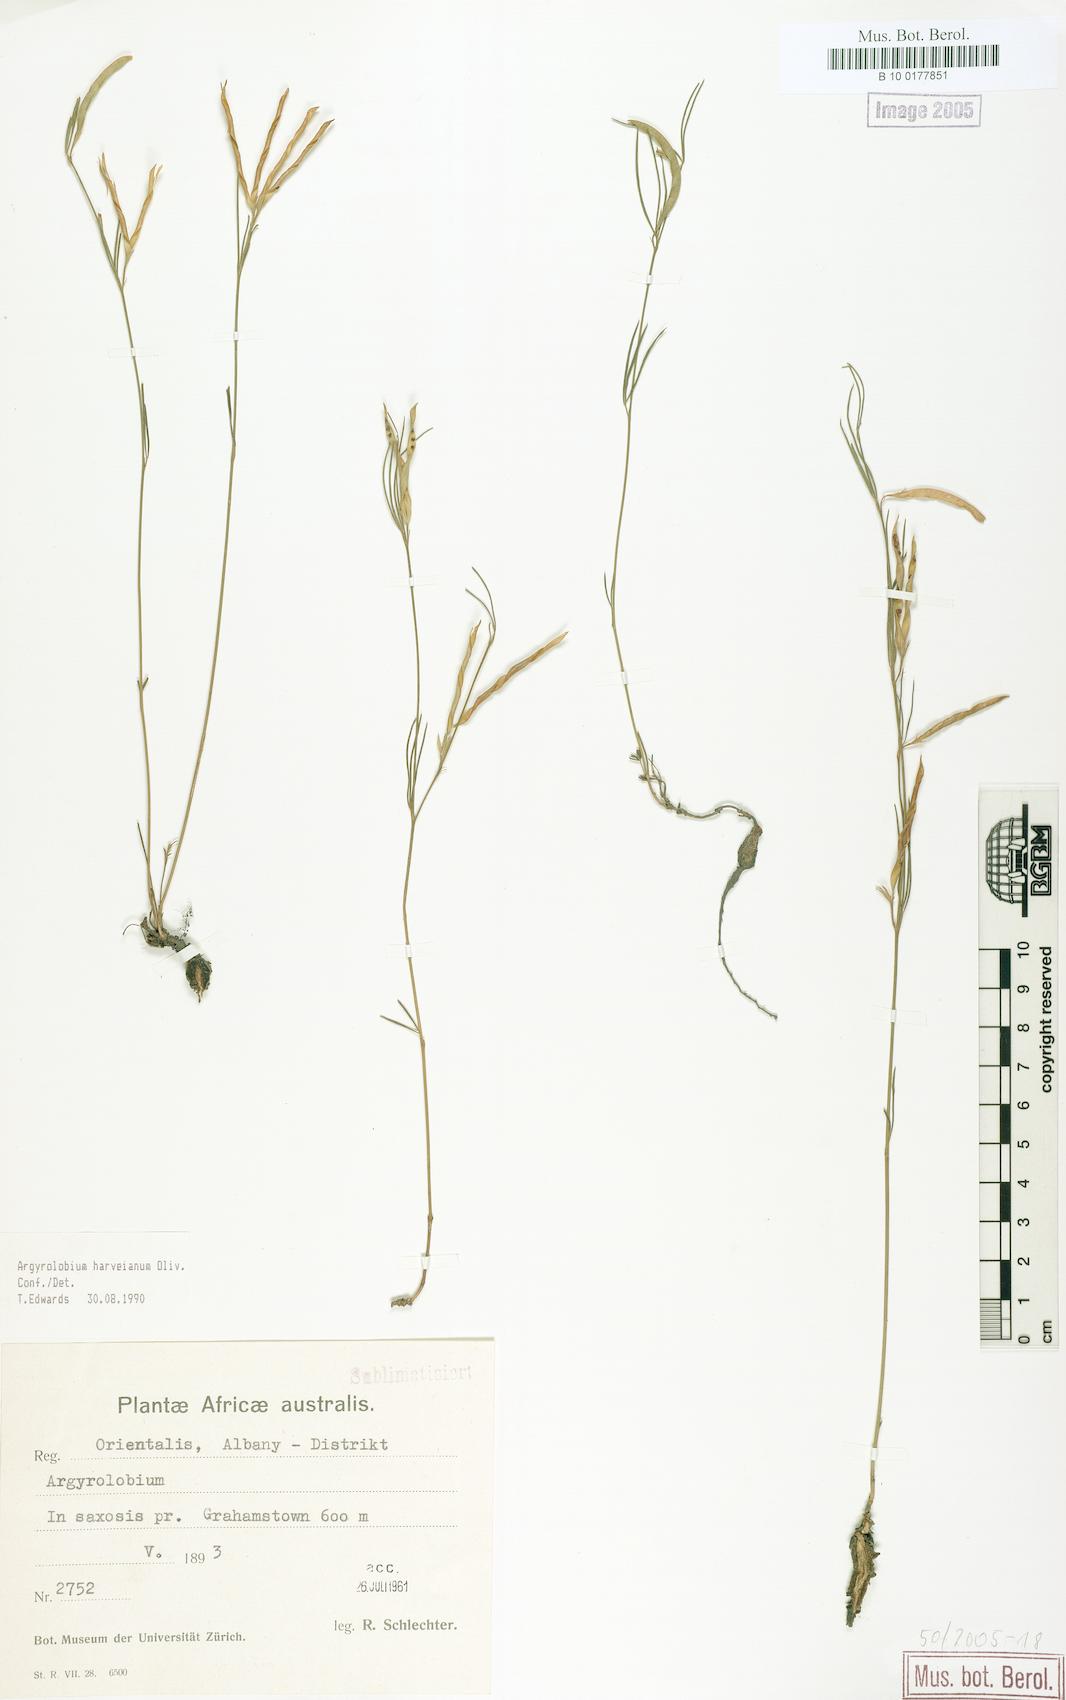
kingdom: Plantae
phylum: Tracheophyta
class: Magnoliopsida
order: Fabales
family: Fabaceae
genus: Argyrolobium
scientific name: Argyrolobium harveyanum
